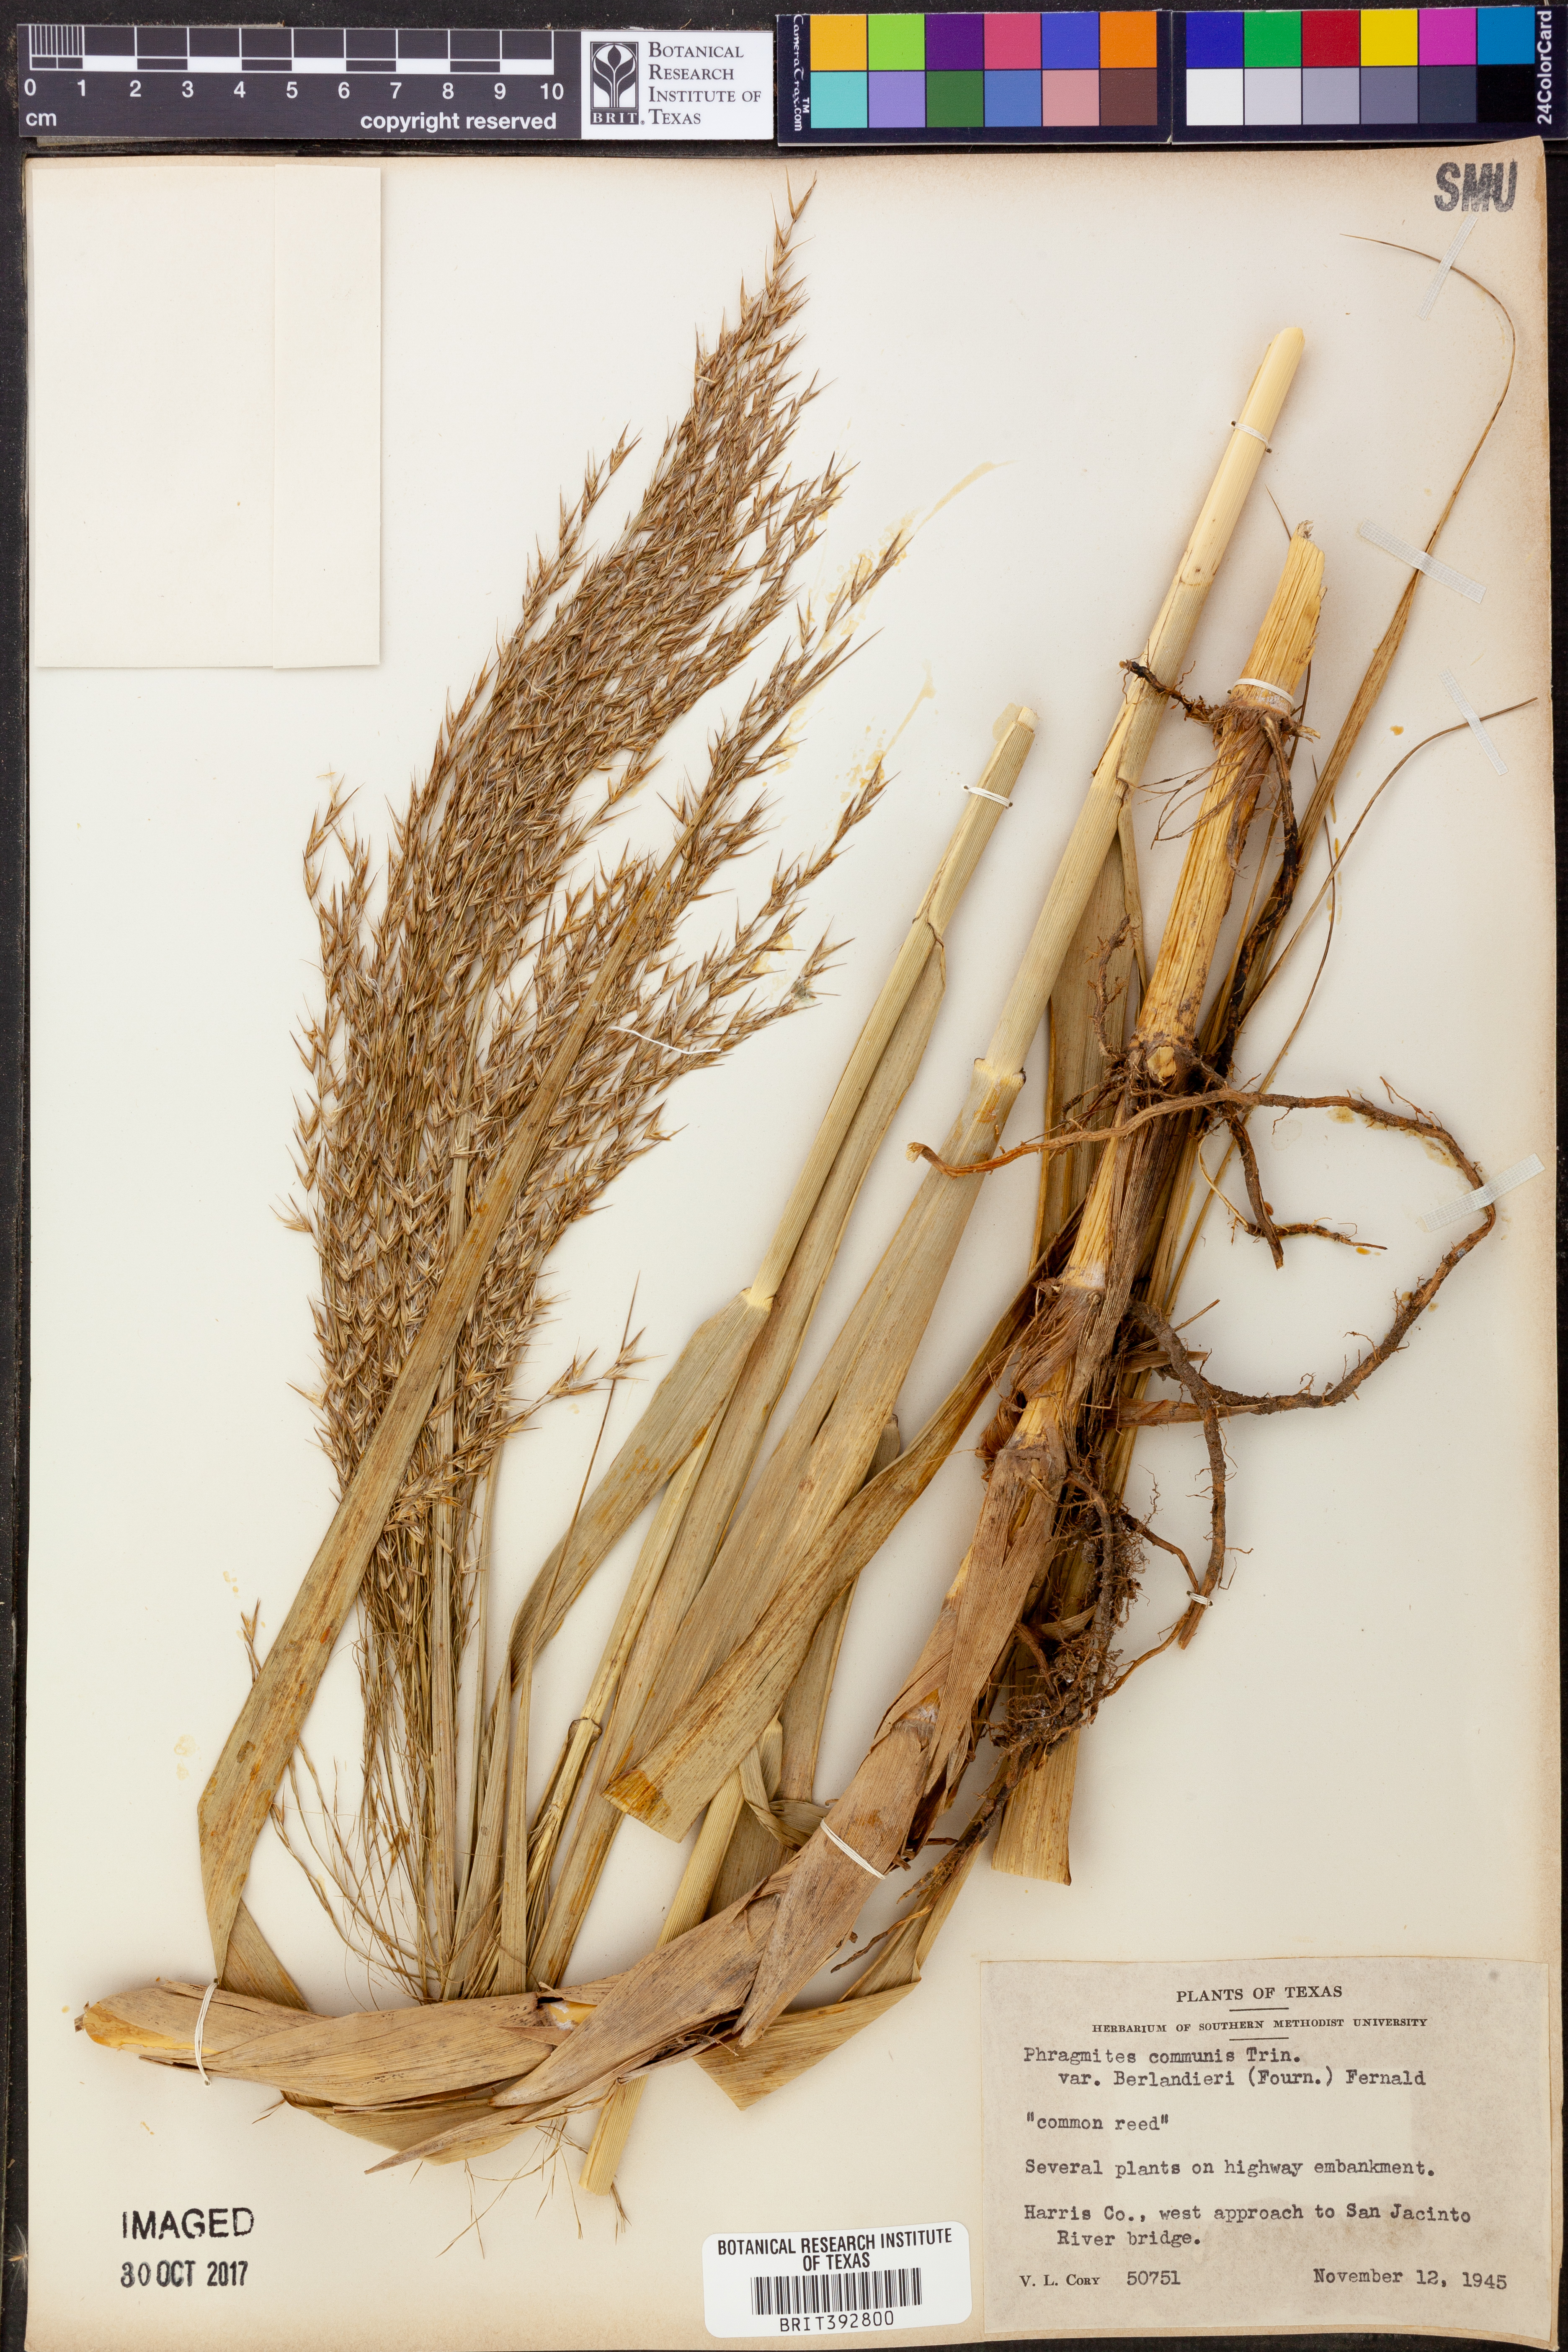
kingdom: Plantae
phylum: Tracheophyta
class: Liliopsida
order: Poales
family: Poaceae
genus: Phragmites
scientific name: Phragmites australis
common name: Common reed
